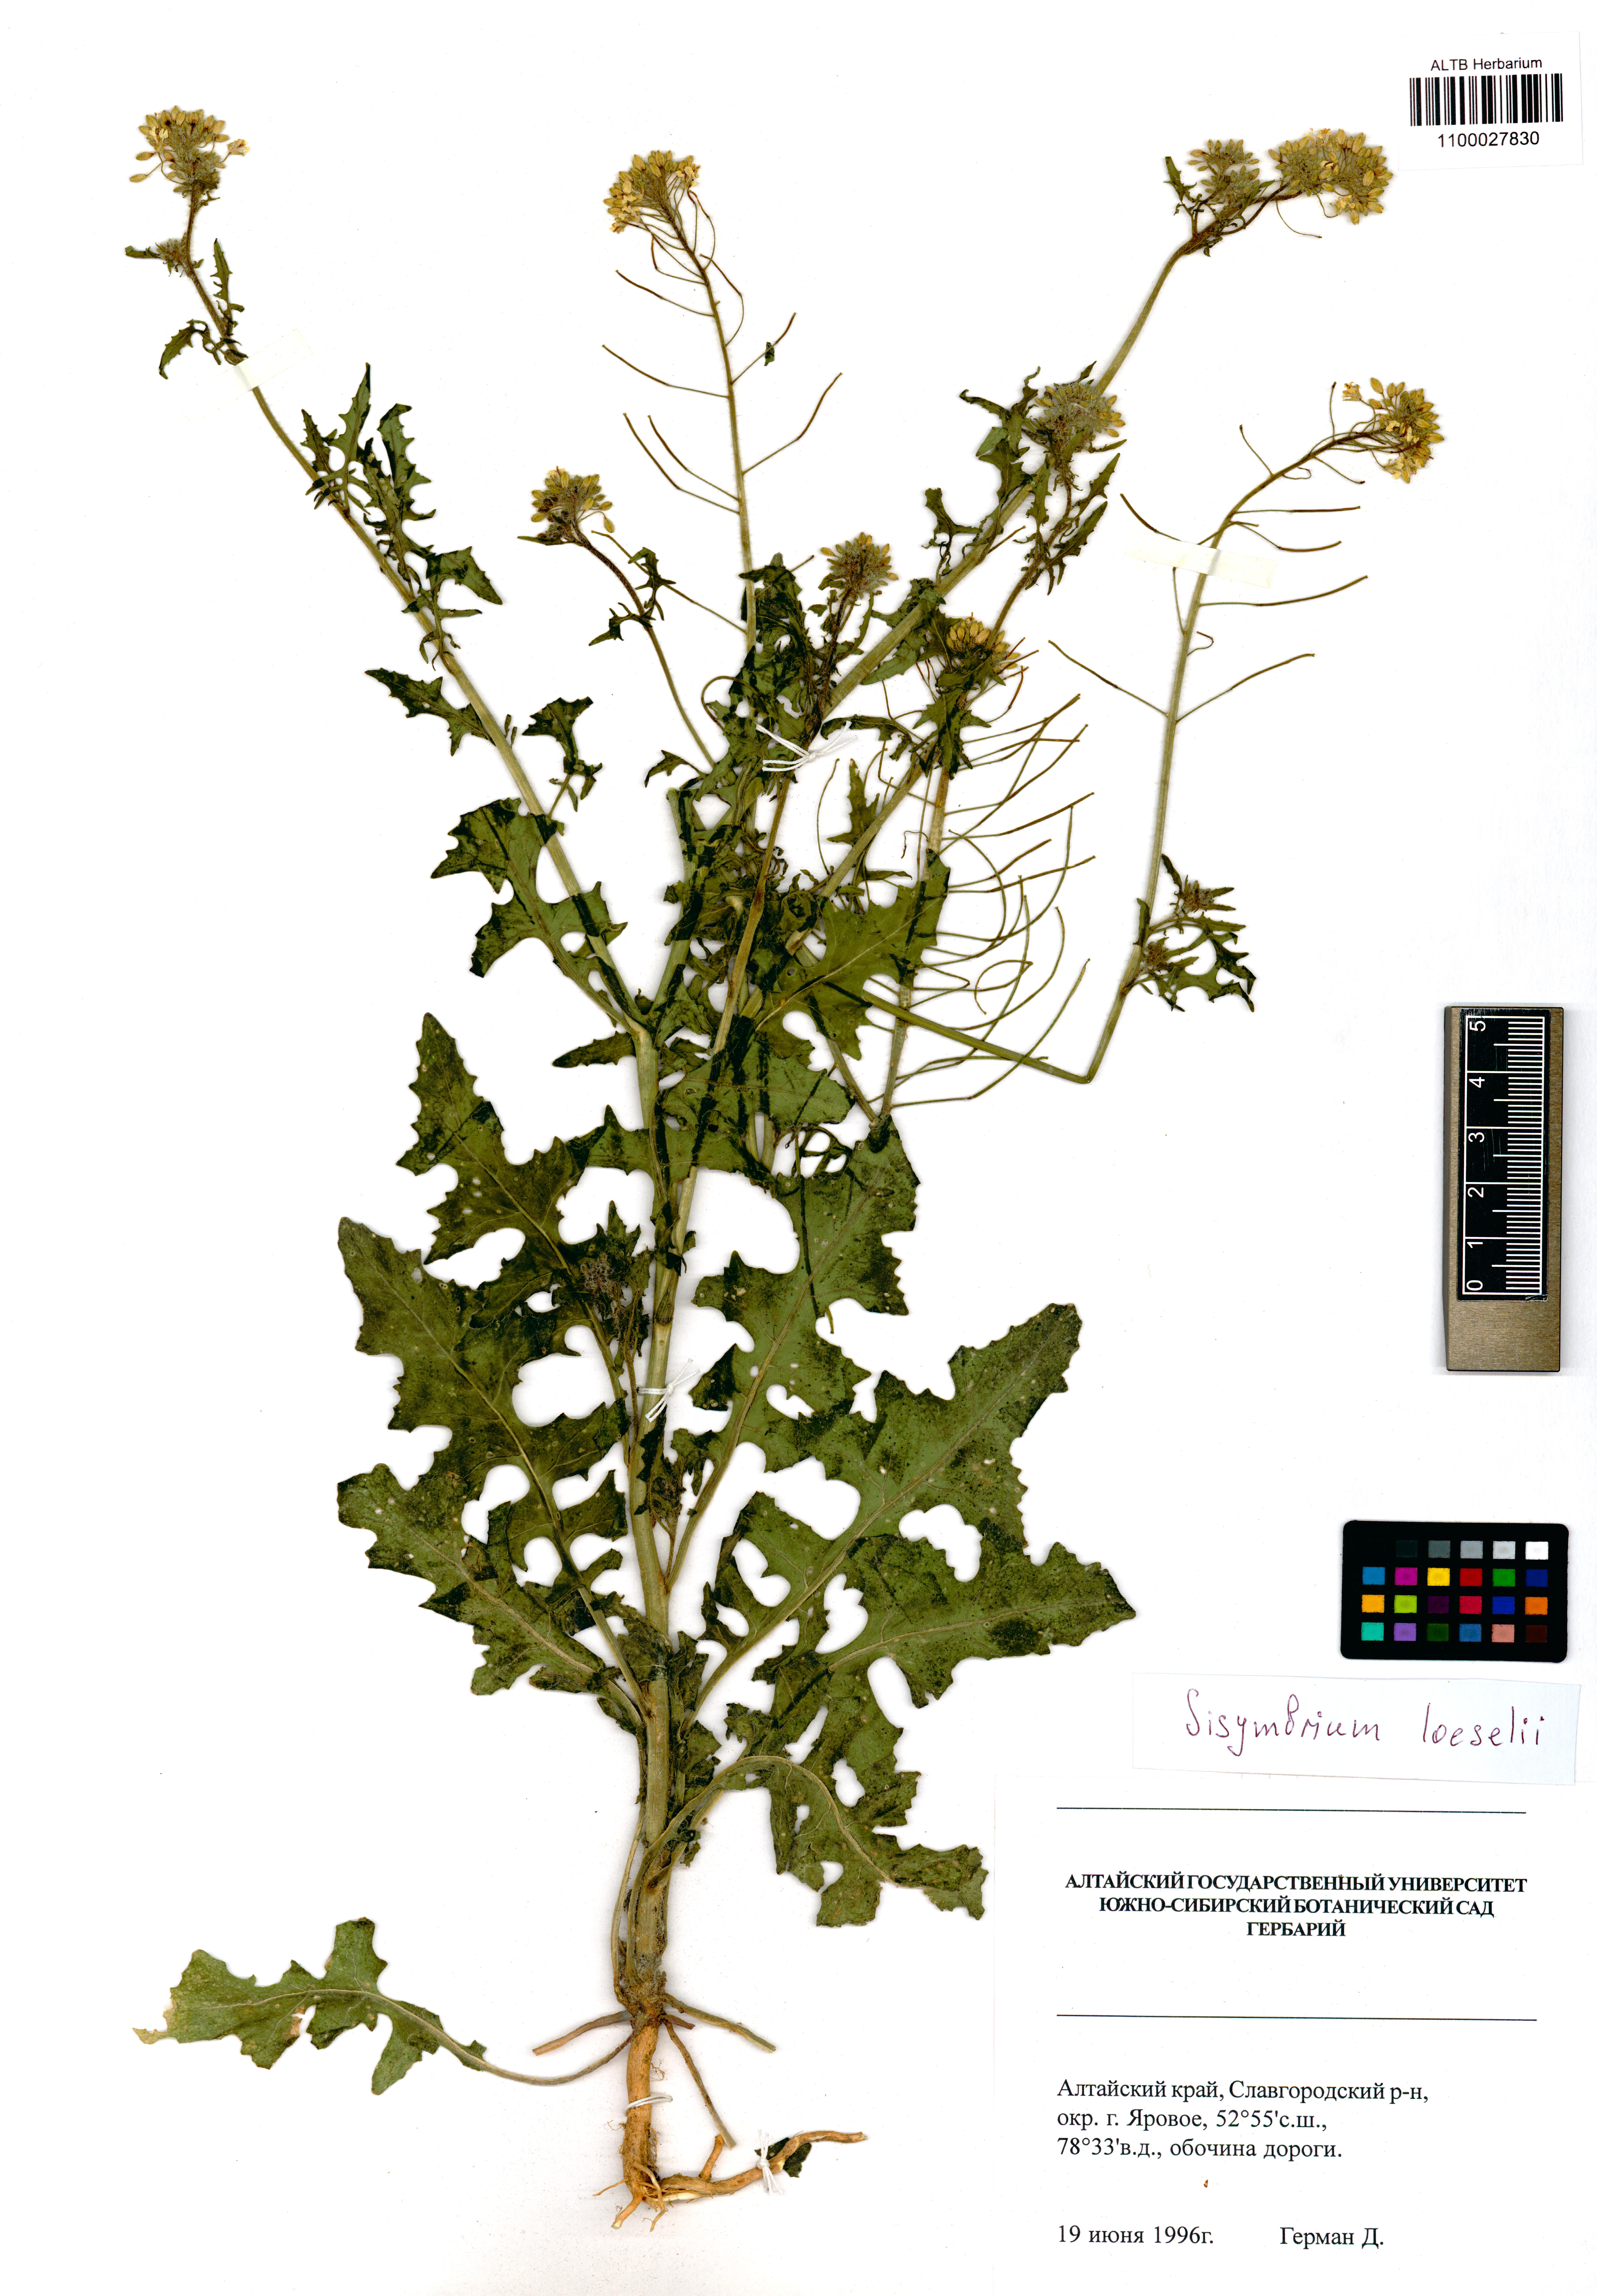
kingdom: Plantae
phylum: Tracheophyta
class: Magnoliopsida
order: Brassicales
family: Brassicaceae
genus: Sisymbrium
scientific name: Sisymbrium loeselii
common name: False london-rocket
